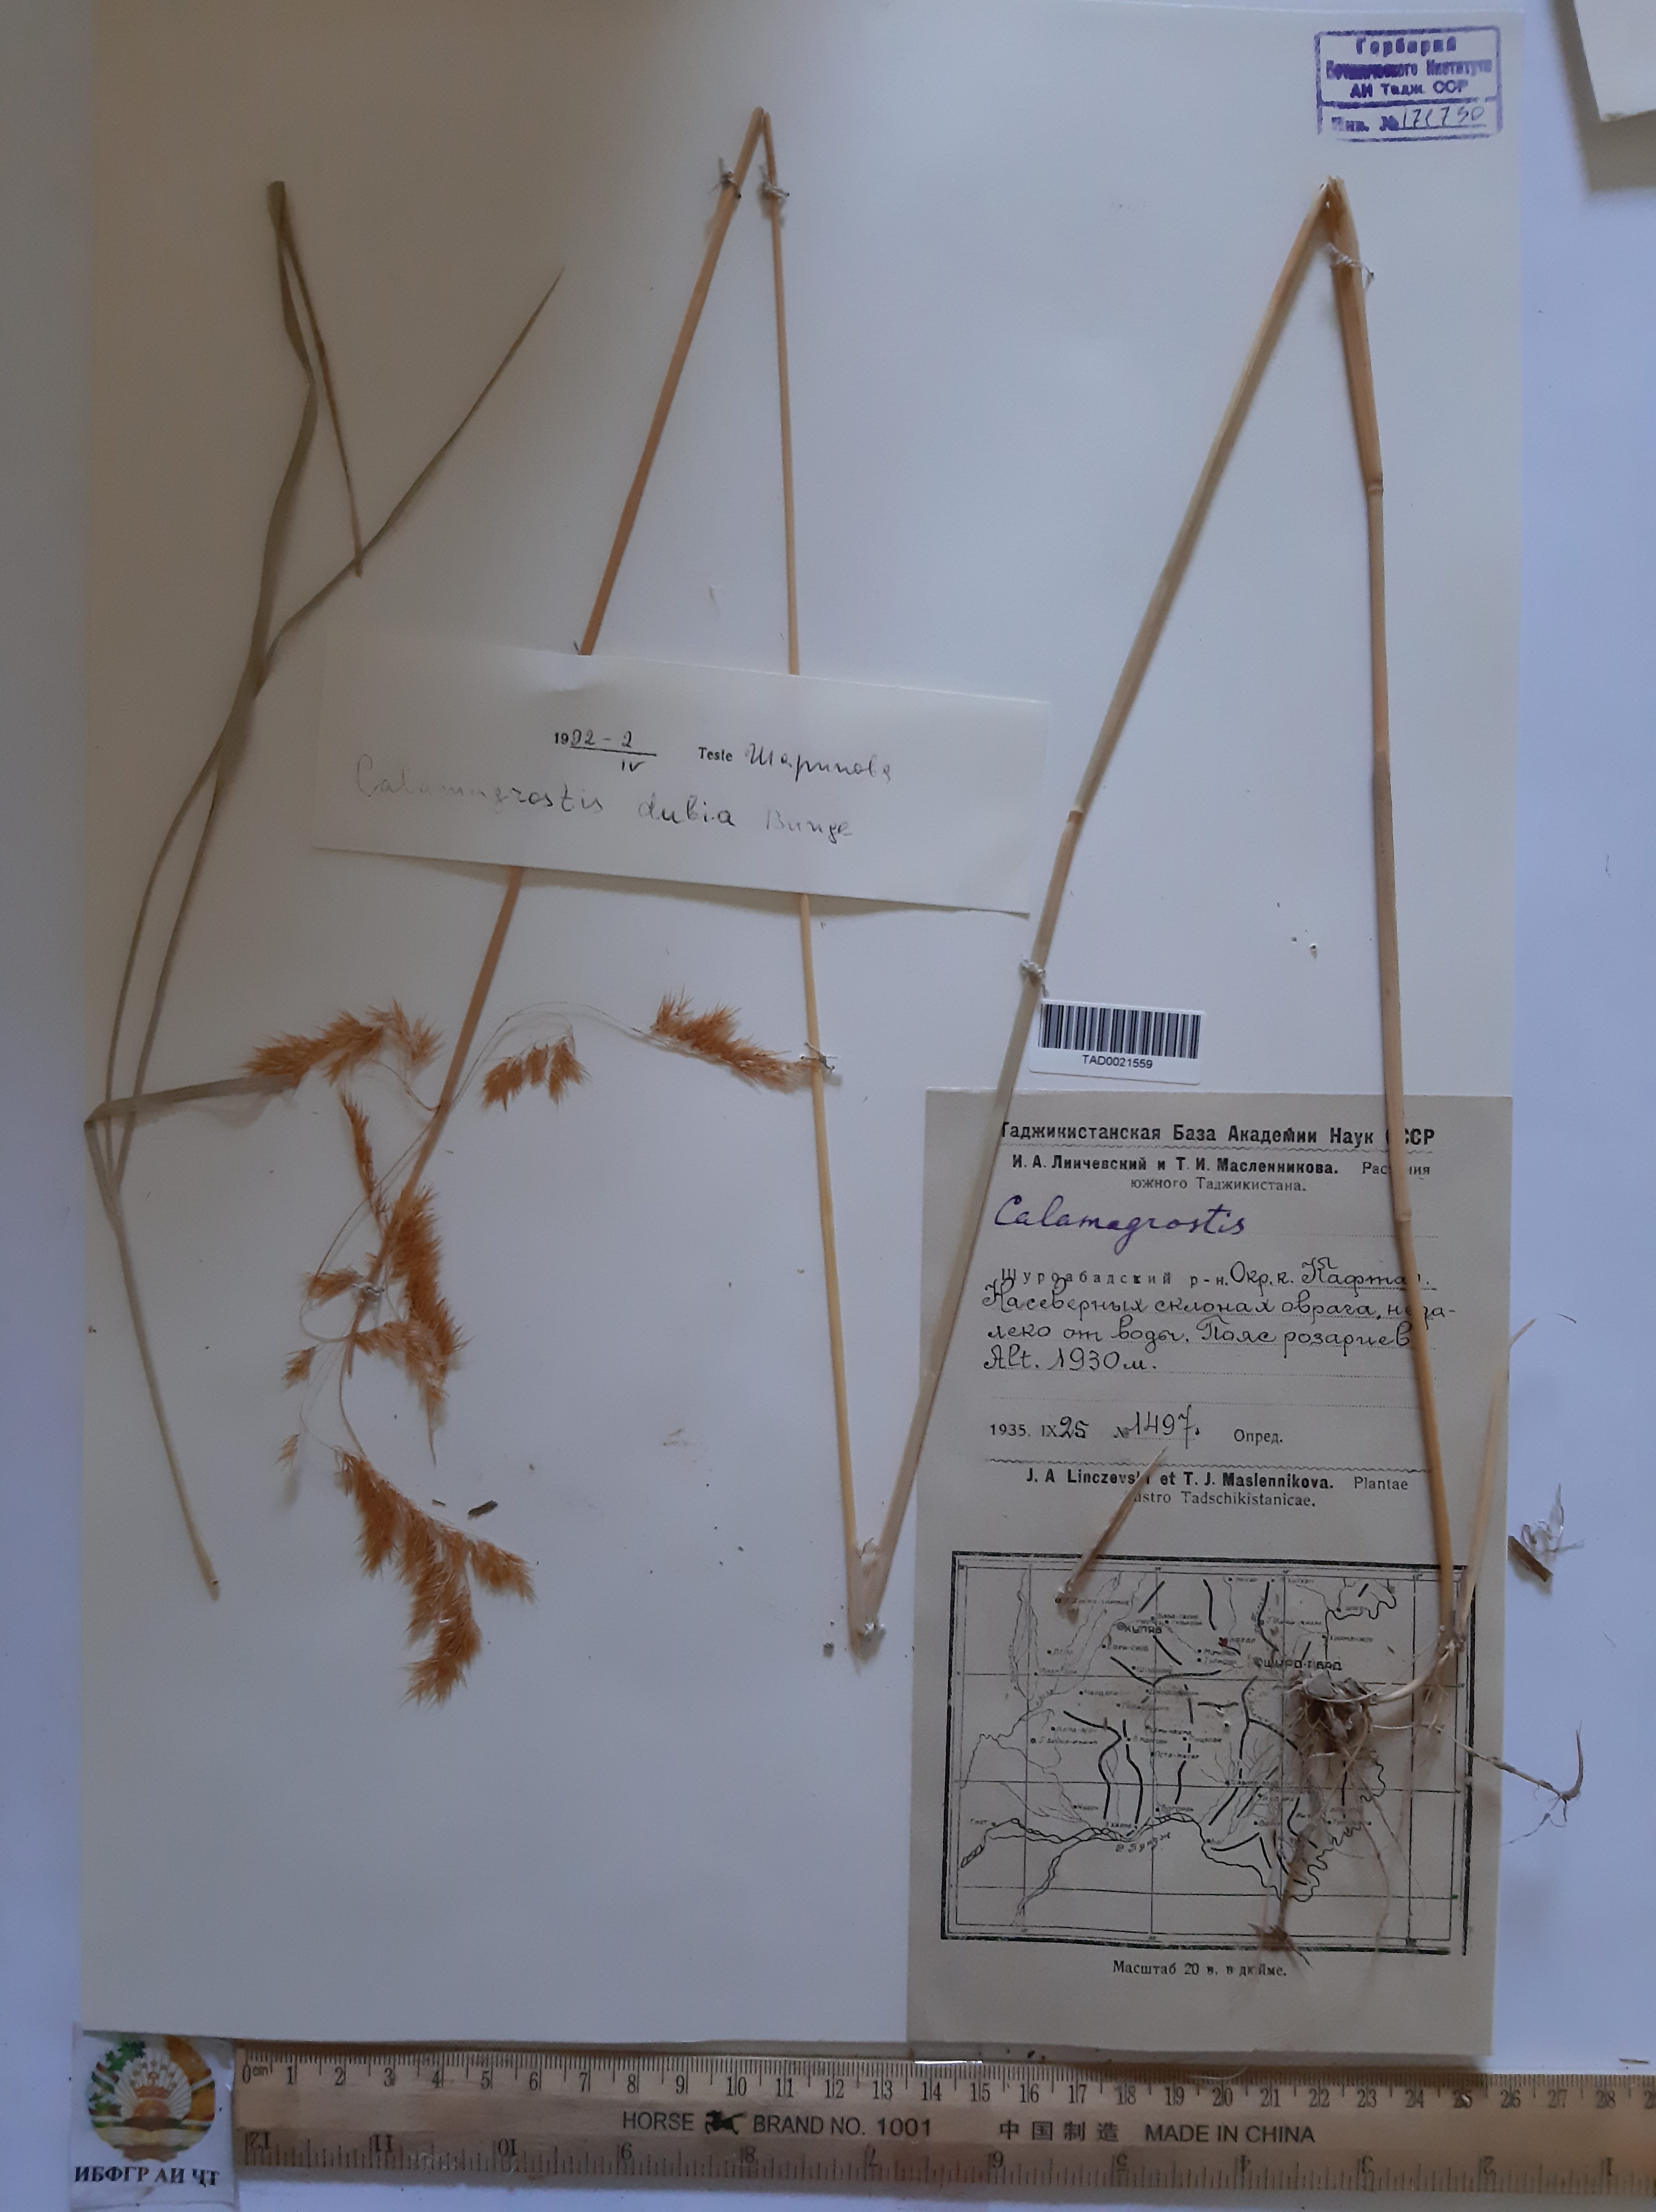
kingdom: Plantae
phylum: Tracheophyta
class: Liliopsida
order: Poales
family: Poaceae
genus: Calamagrostis
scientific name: Calamagrostis pseudophragmites
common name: Coastal small-reed
